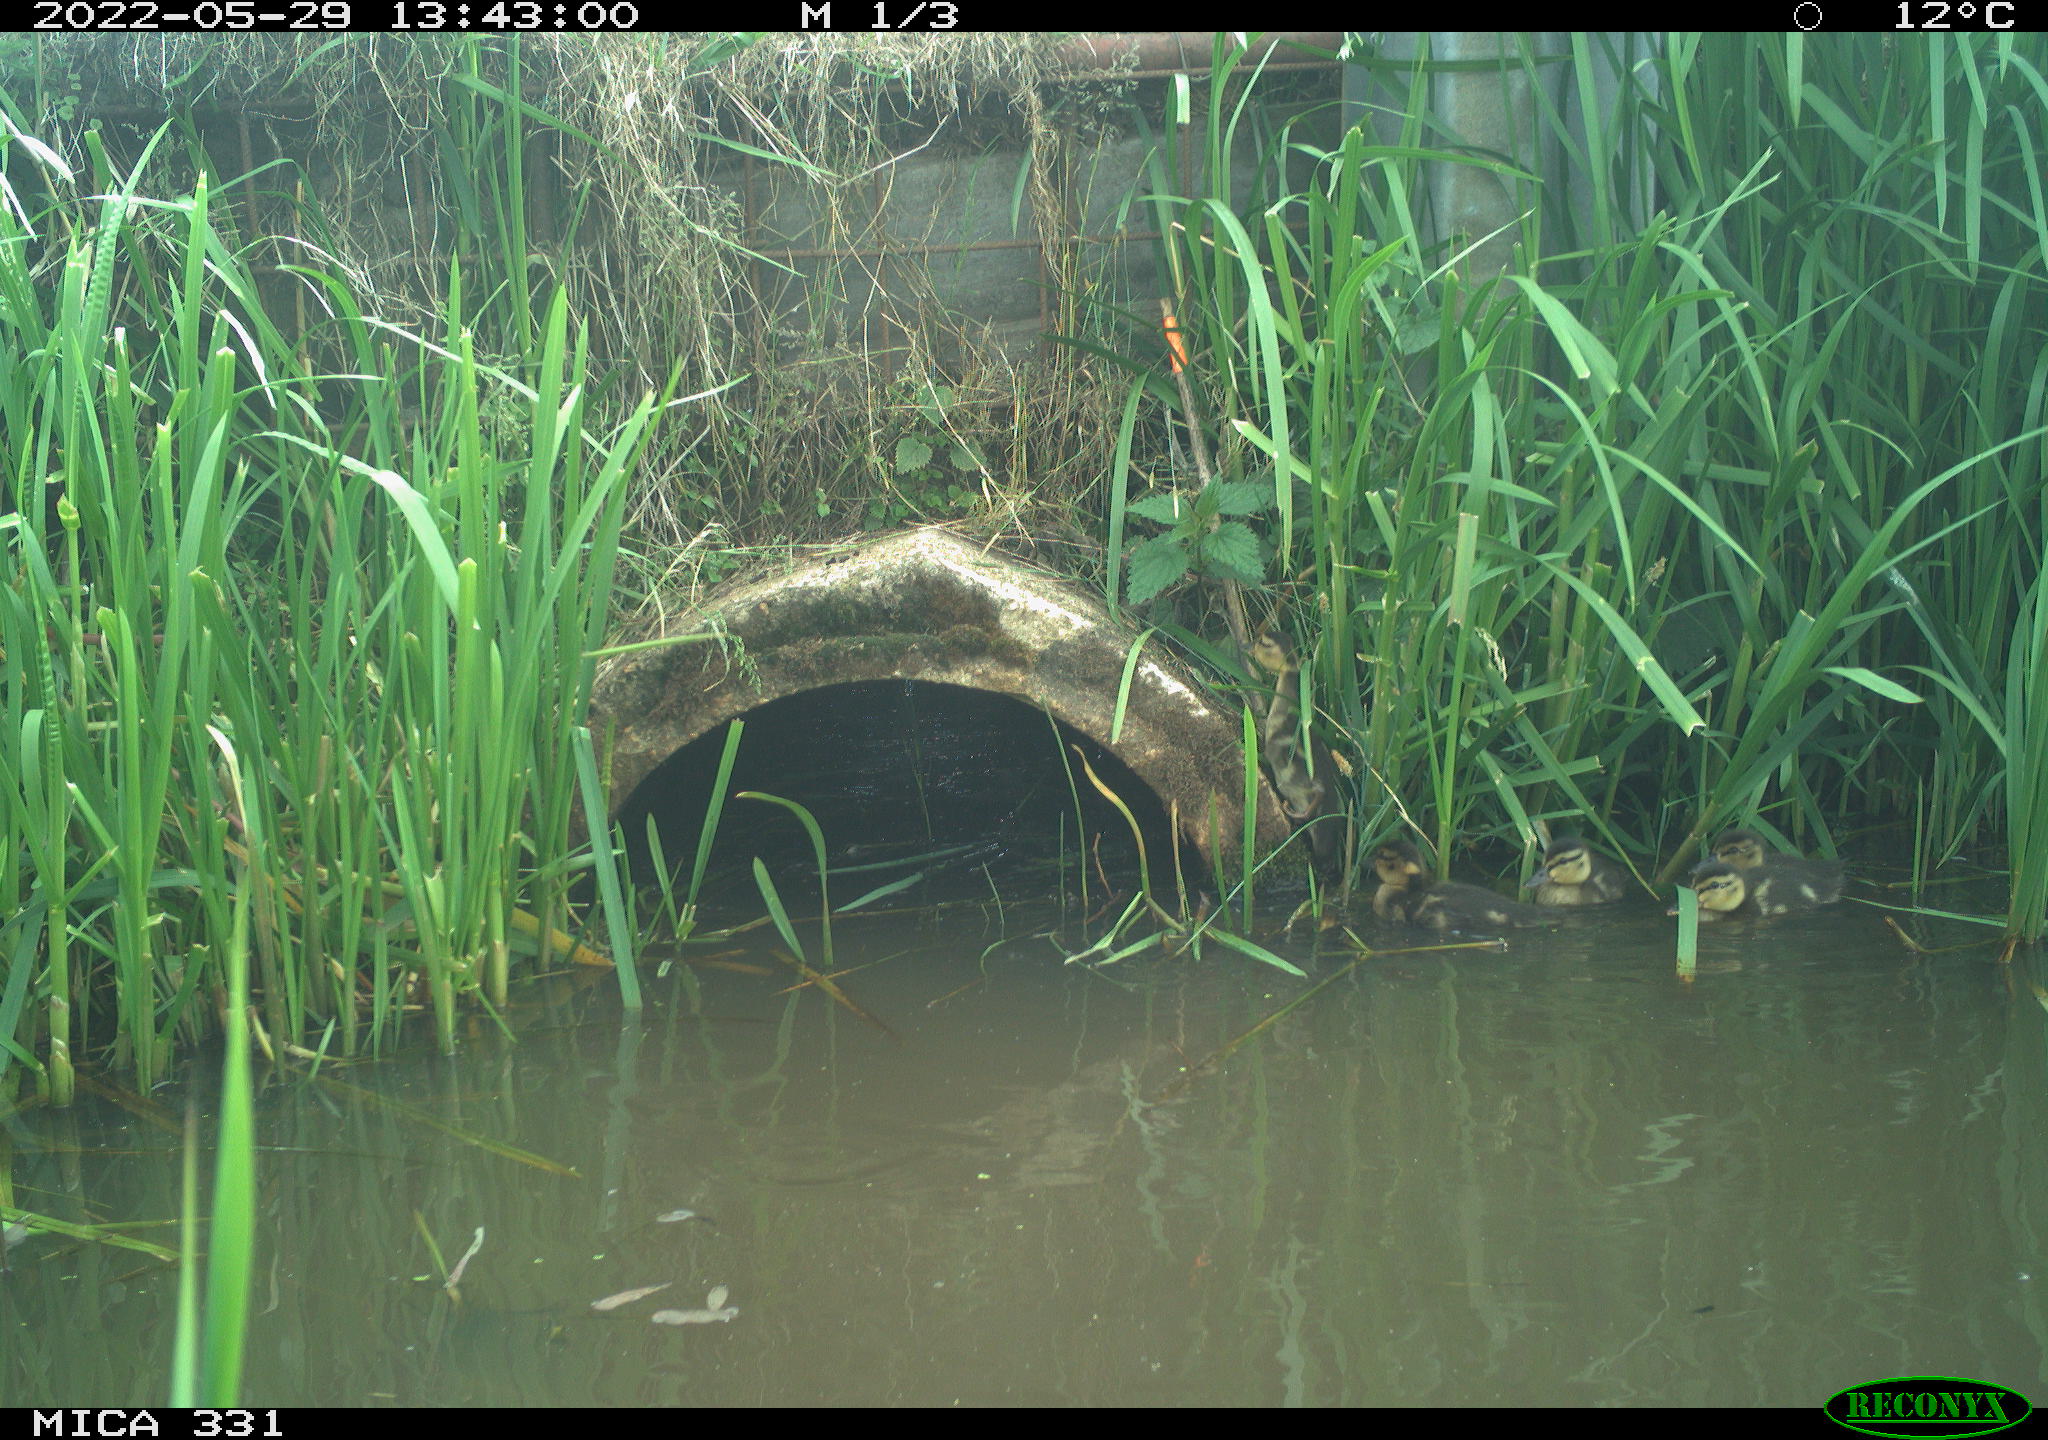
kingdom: Animalia
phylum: Chordata
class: Aves
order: Anseriformes
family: Anatidae
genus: Anas
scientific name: Anas platyrhynchos
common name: Mallard
